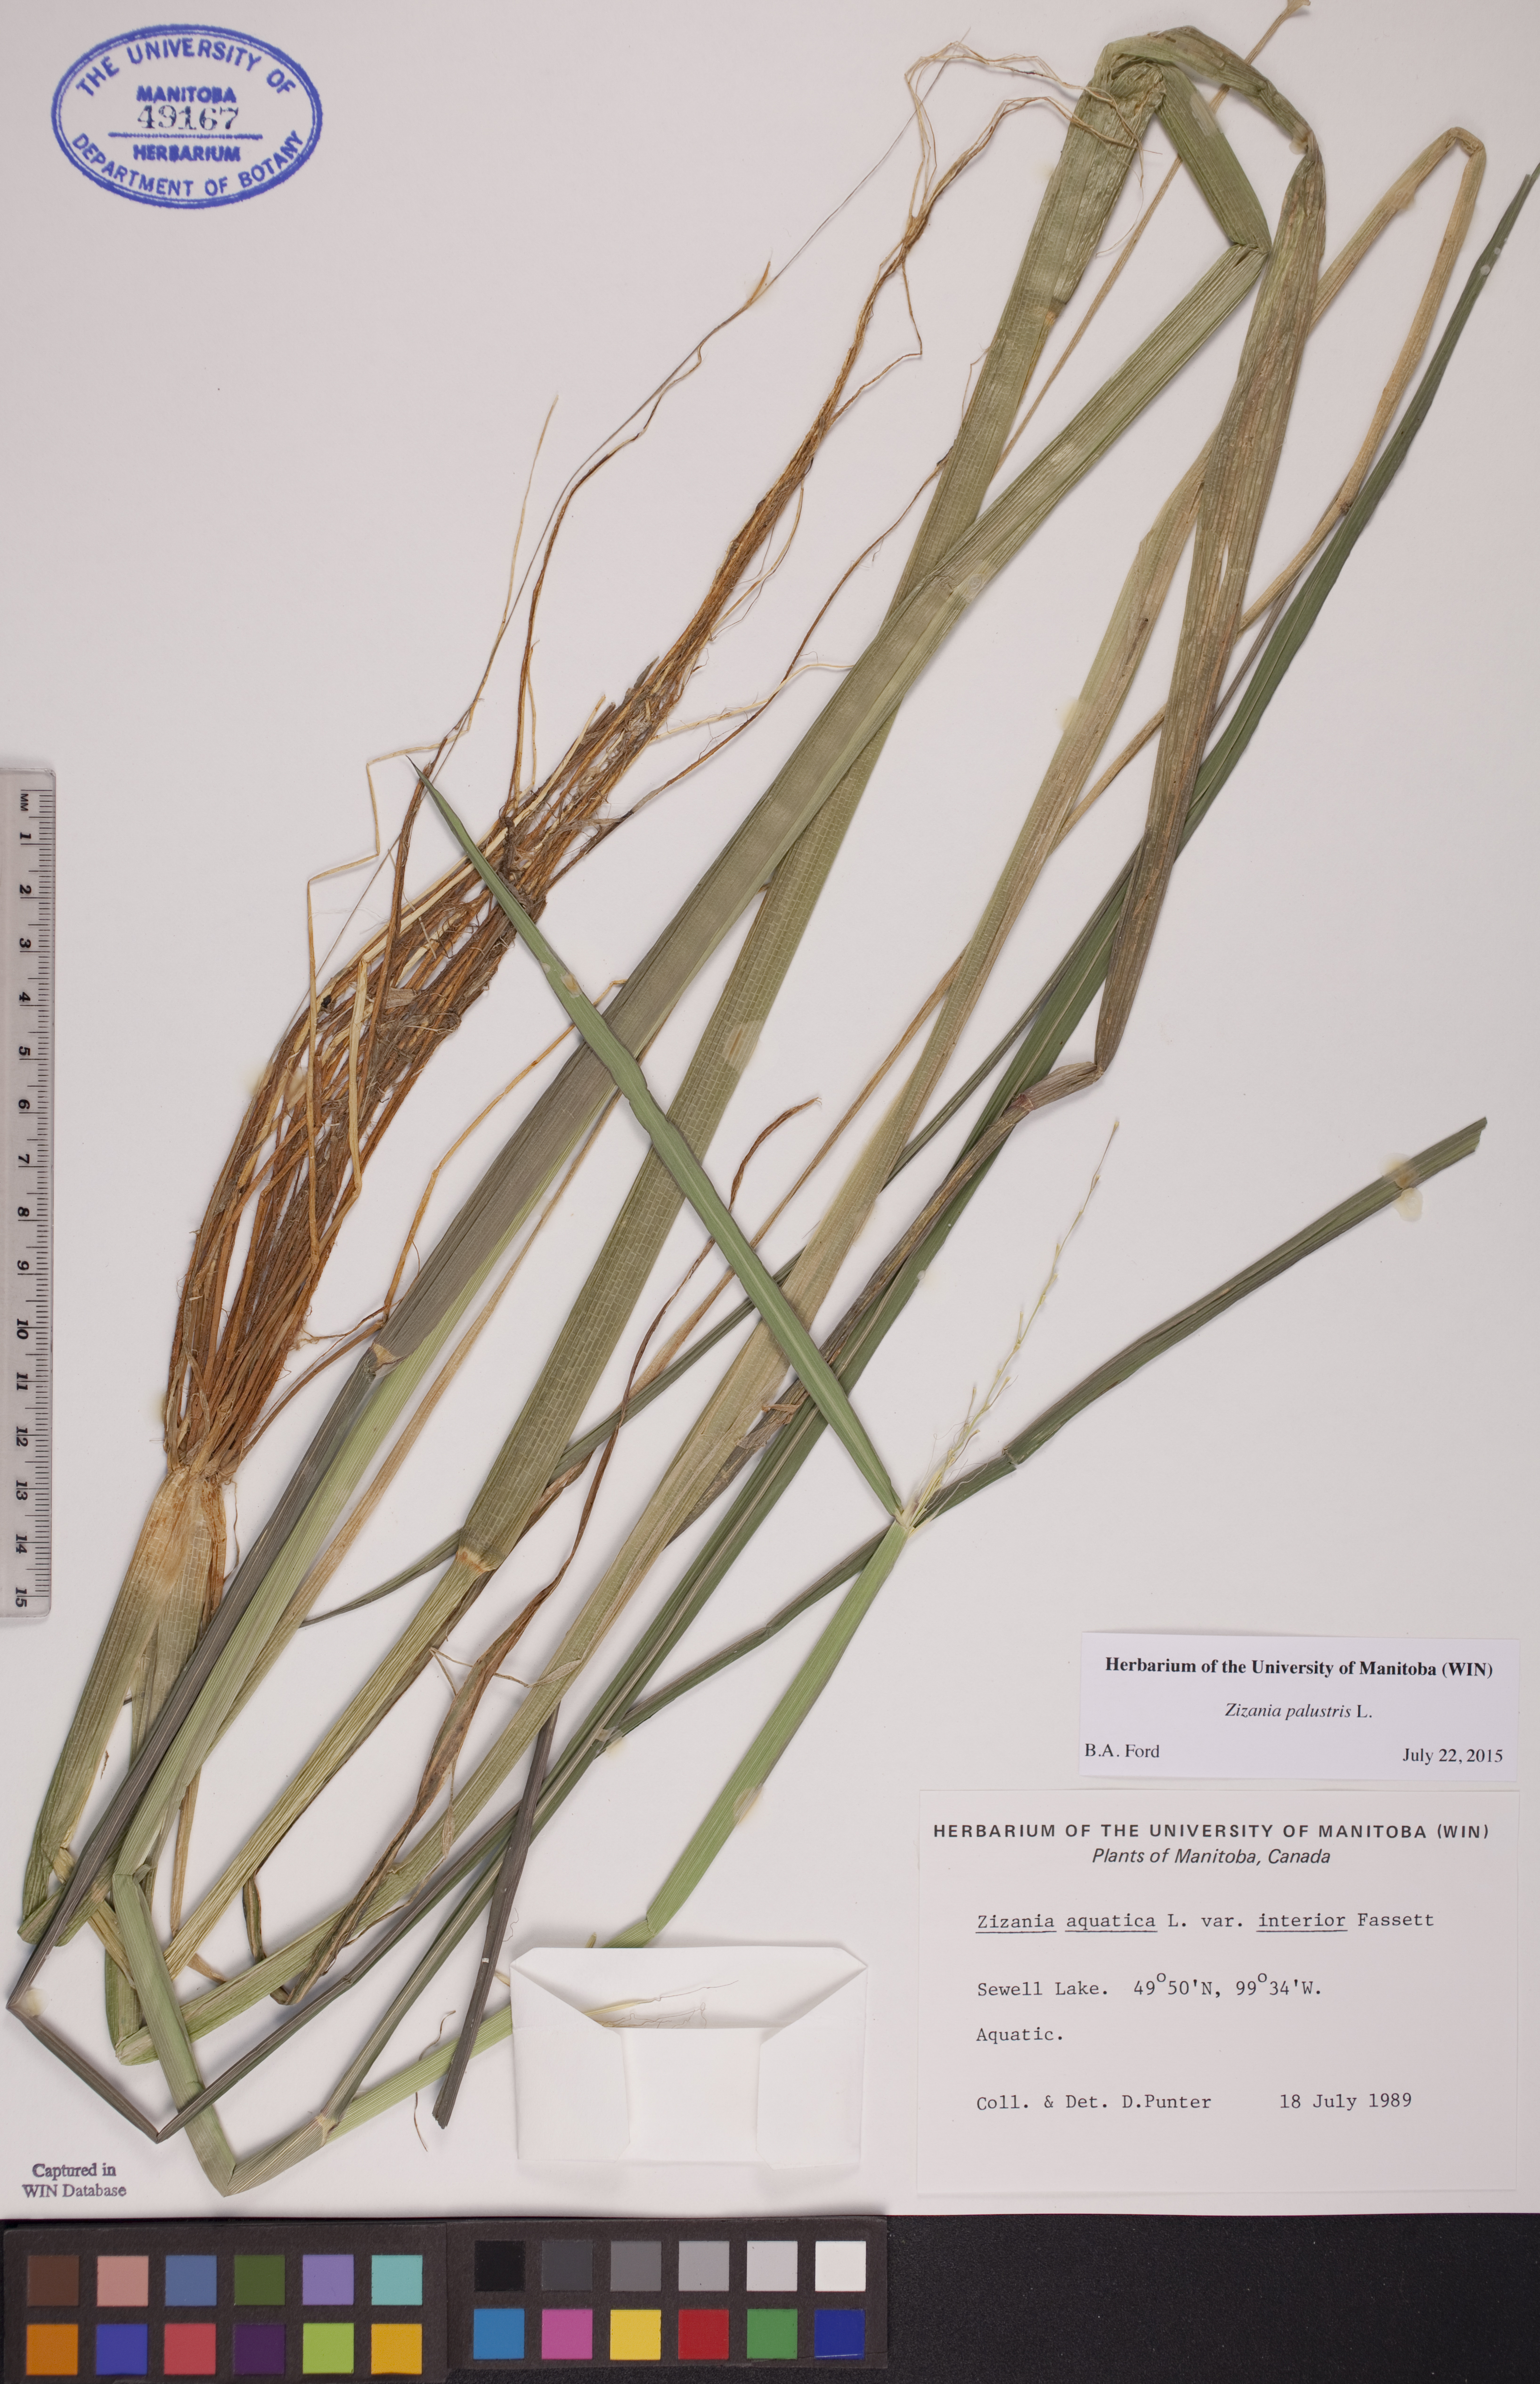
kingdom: Plantae
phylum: Tracheophyta
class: Liliopsida
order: Poales
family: Poaceae
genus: Zizania
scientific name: Zizania palustris
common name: Northern wild rice
